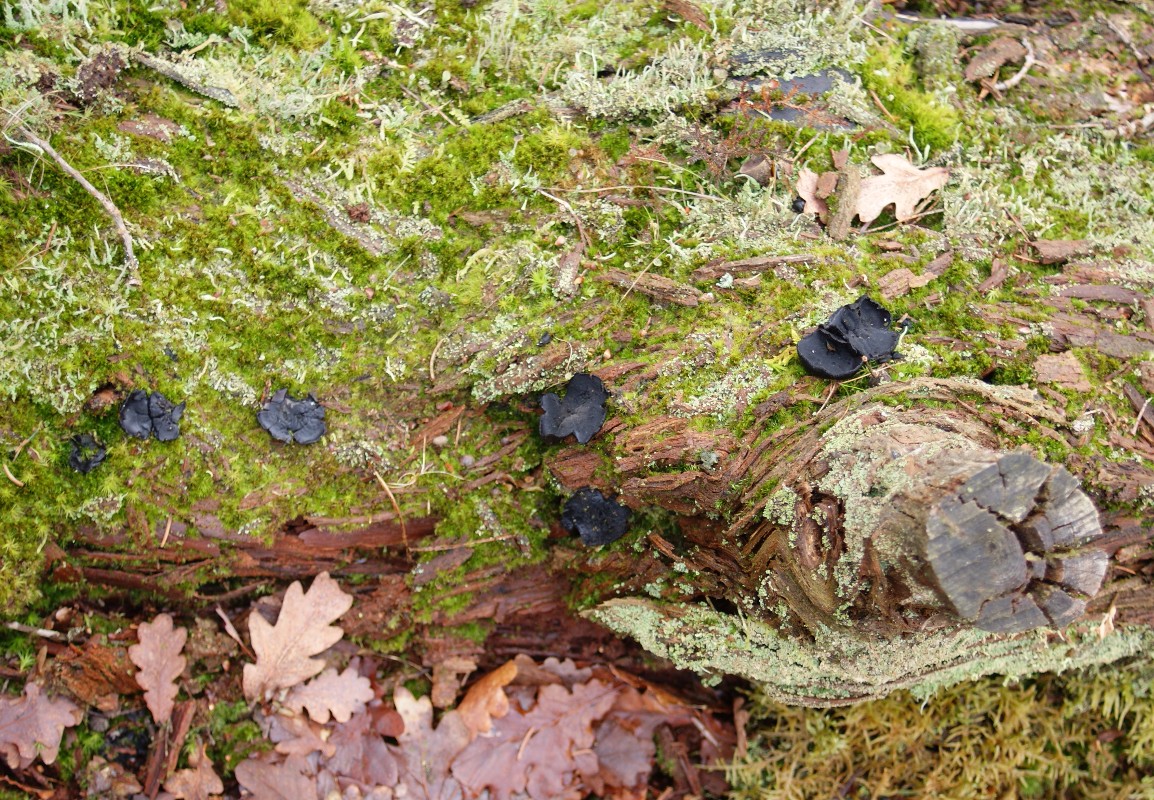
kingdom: Fungi
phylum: Ascomycota
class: Pezizomycetes
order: Pezizales
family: Sarcosomataceae
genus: Pseudoplectania
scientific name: Pseudoplectania nigrella
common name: almindelig sortbæger
